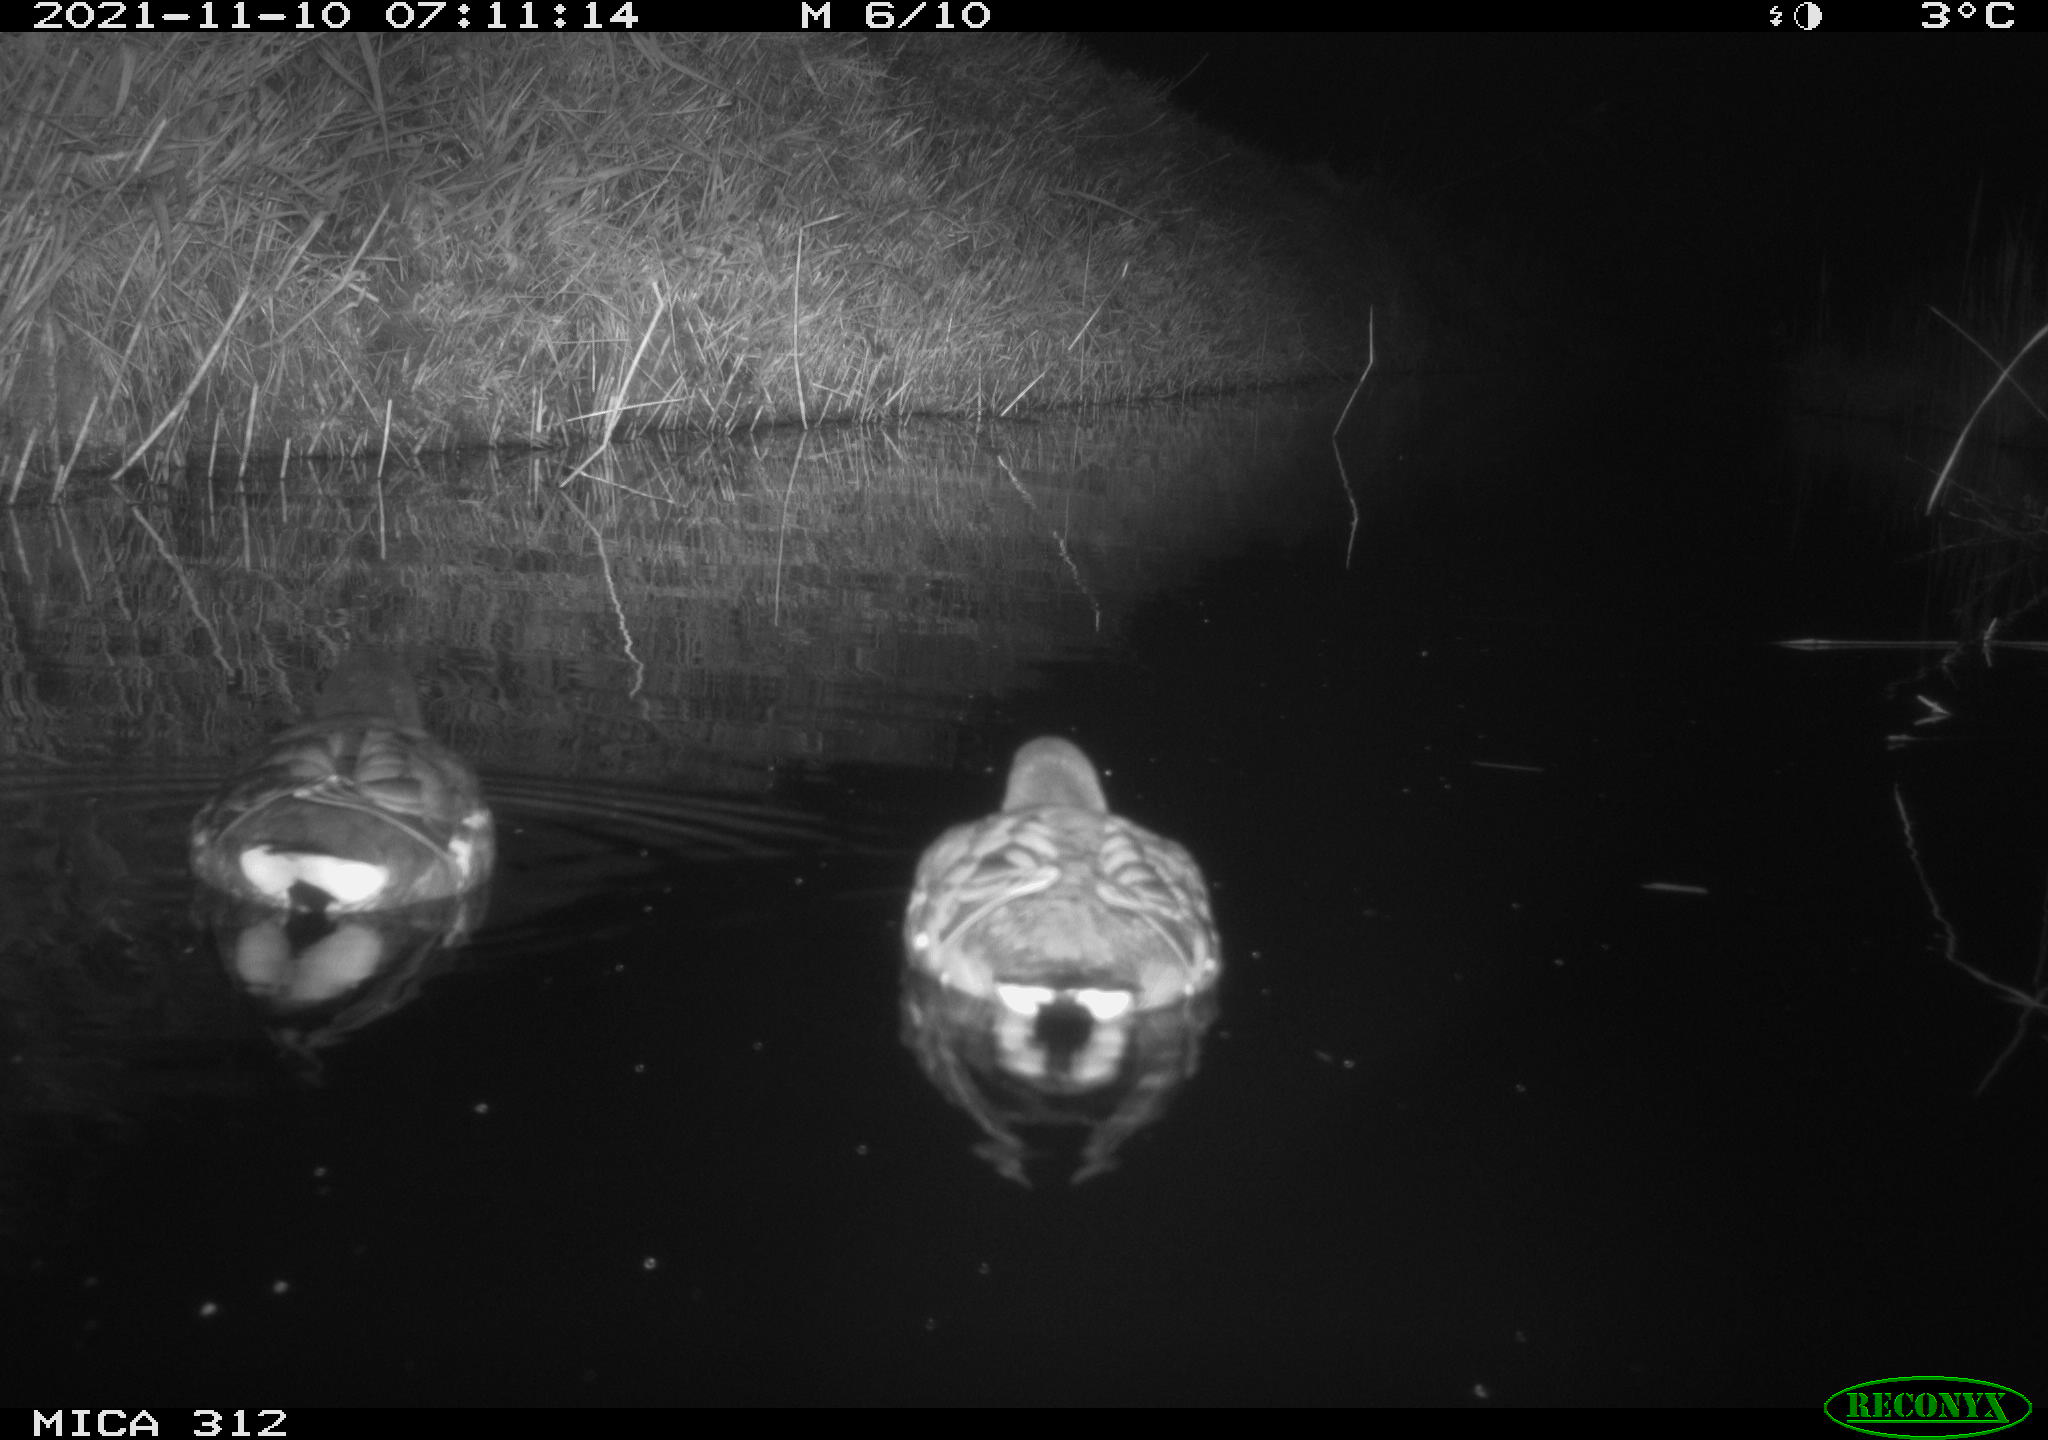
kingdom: Animalia
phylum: Chordata
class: Aves
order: Anseriformes
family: Anatidae
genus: Anas
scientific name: Anas
